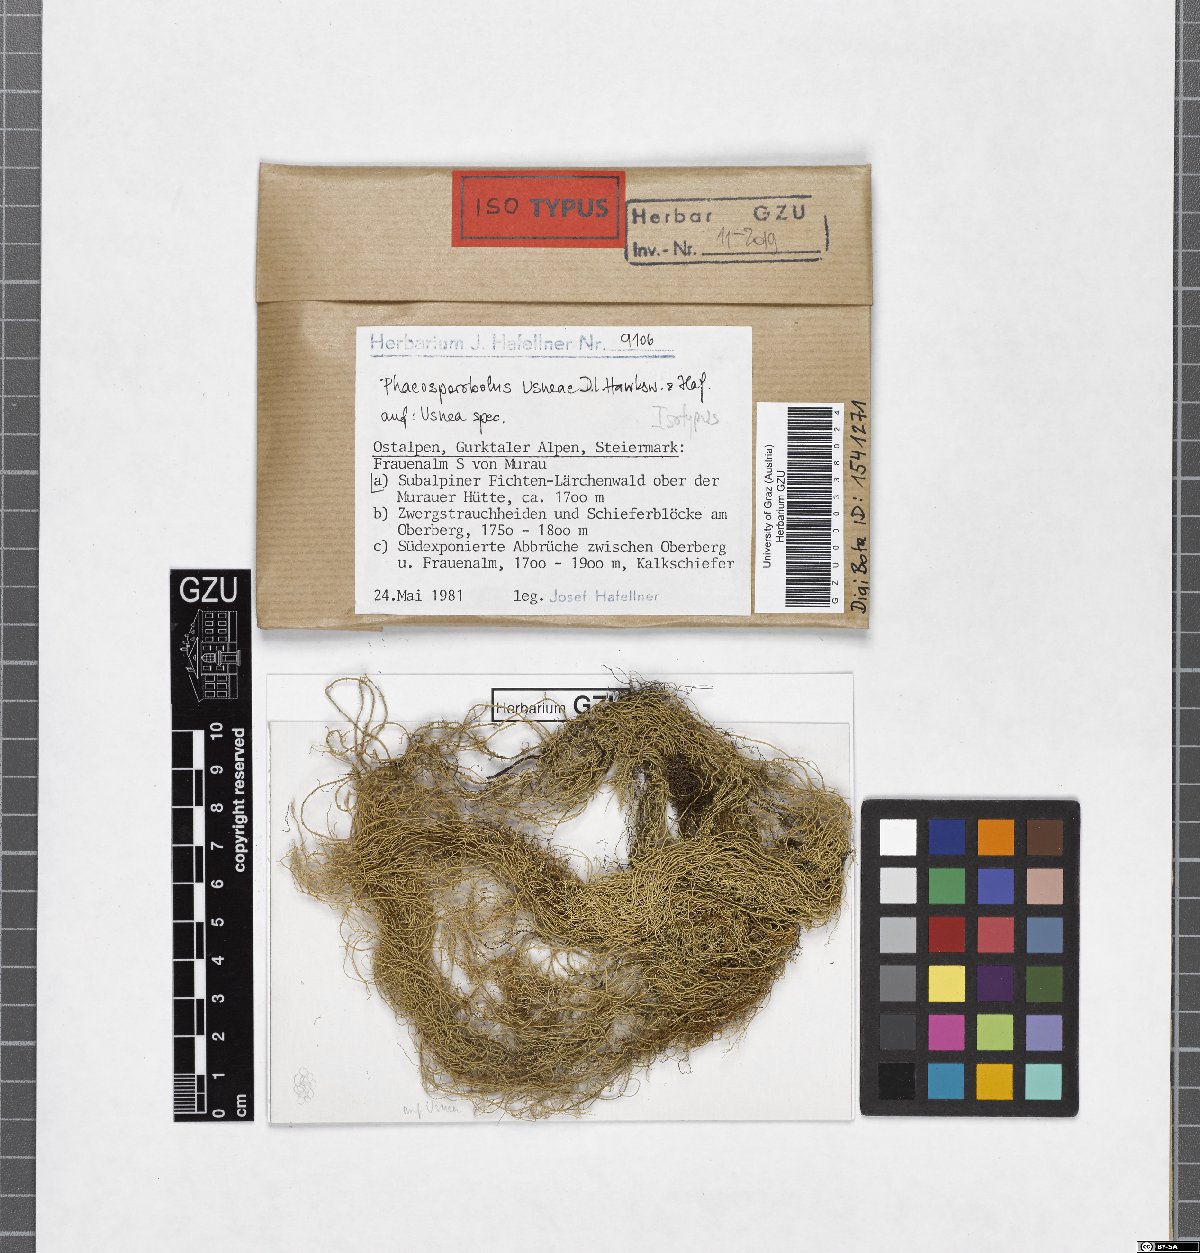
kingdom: Fungi
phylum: Ascomycota
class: Arthoniomycetes
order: Lichenostigmatales
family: Phaeococcomycetaceae
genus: Phaeosporobolus
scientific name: Phaeosporobolus usneae
